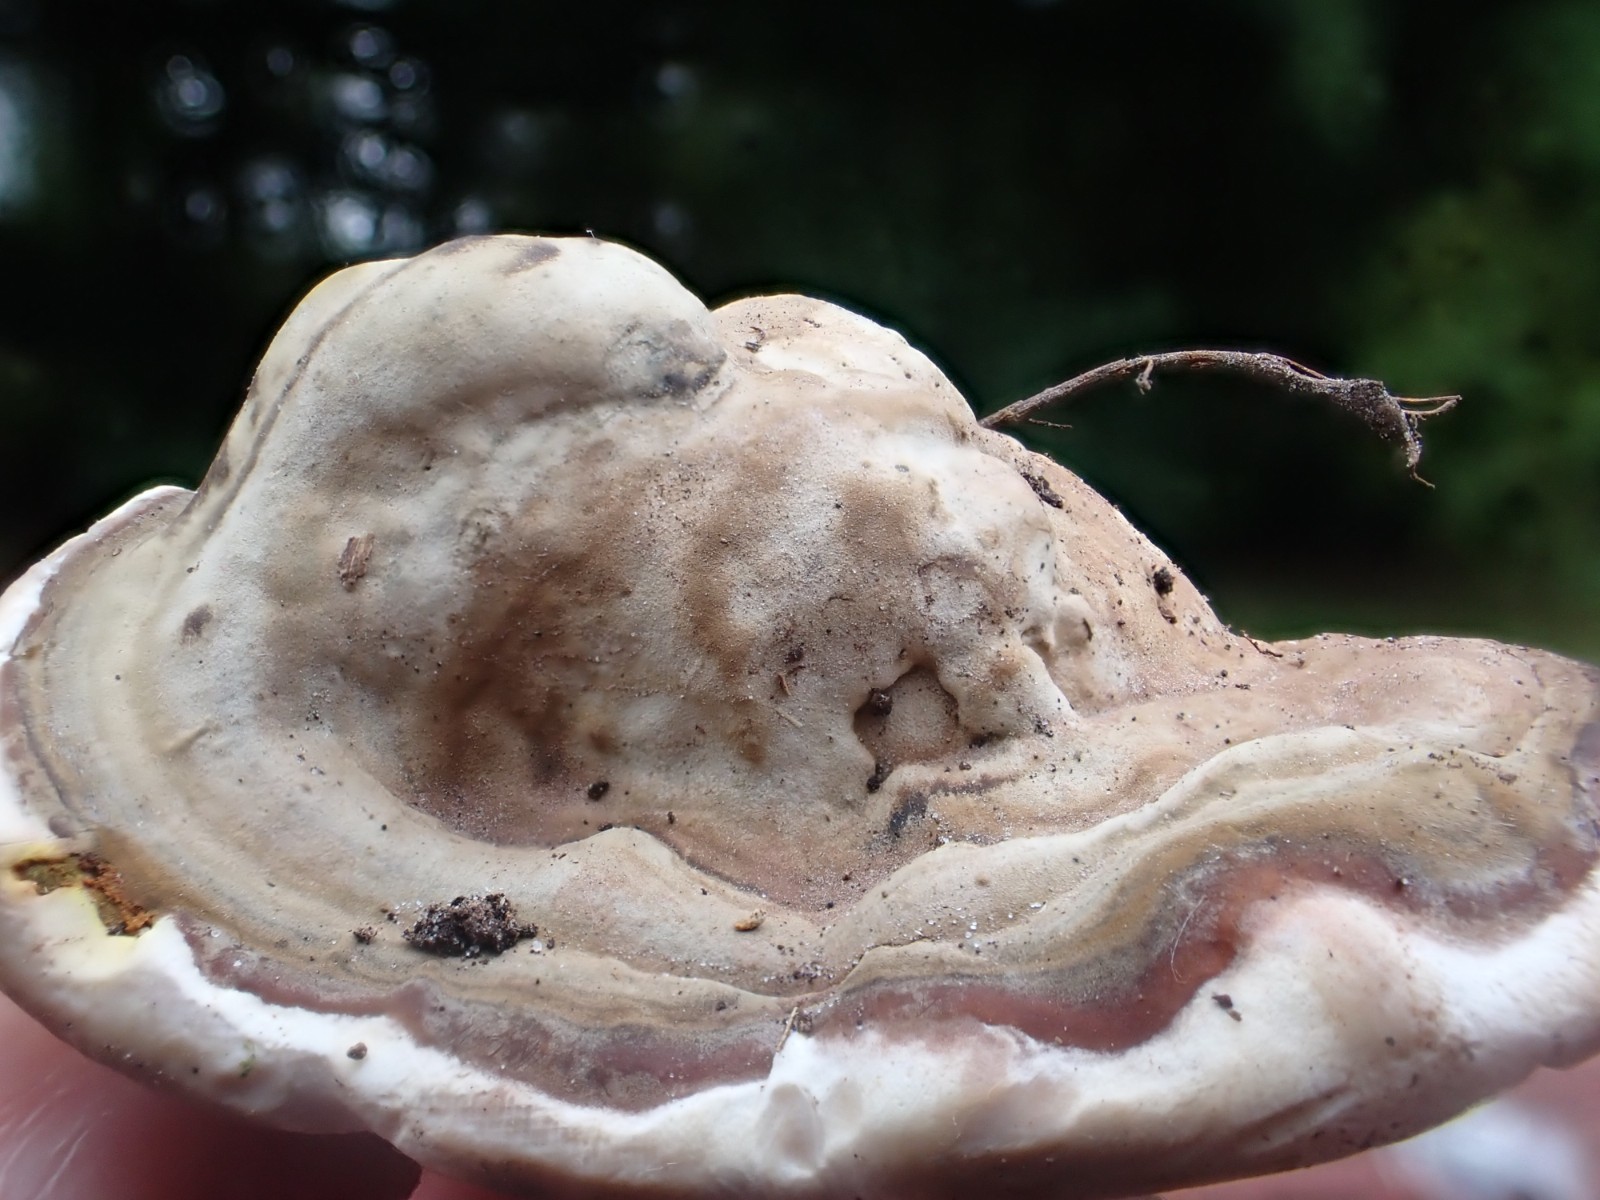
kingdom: Fungi
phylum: Basidiomycota
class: Agaricomycetes
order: Polyporales
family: Polyporaceae
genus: Ganoderma
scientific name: Ganoderma applanatum
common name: flad lakporesvamp
